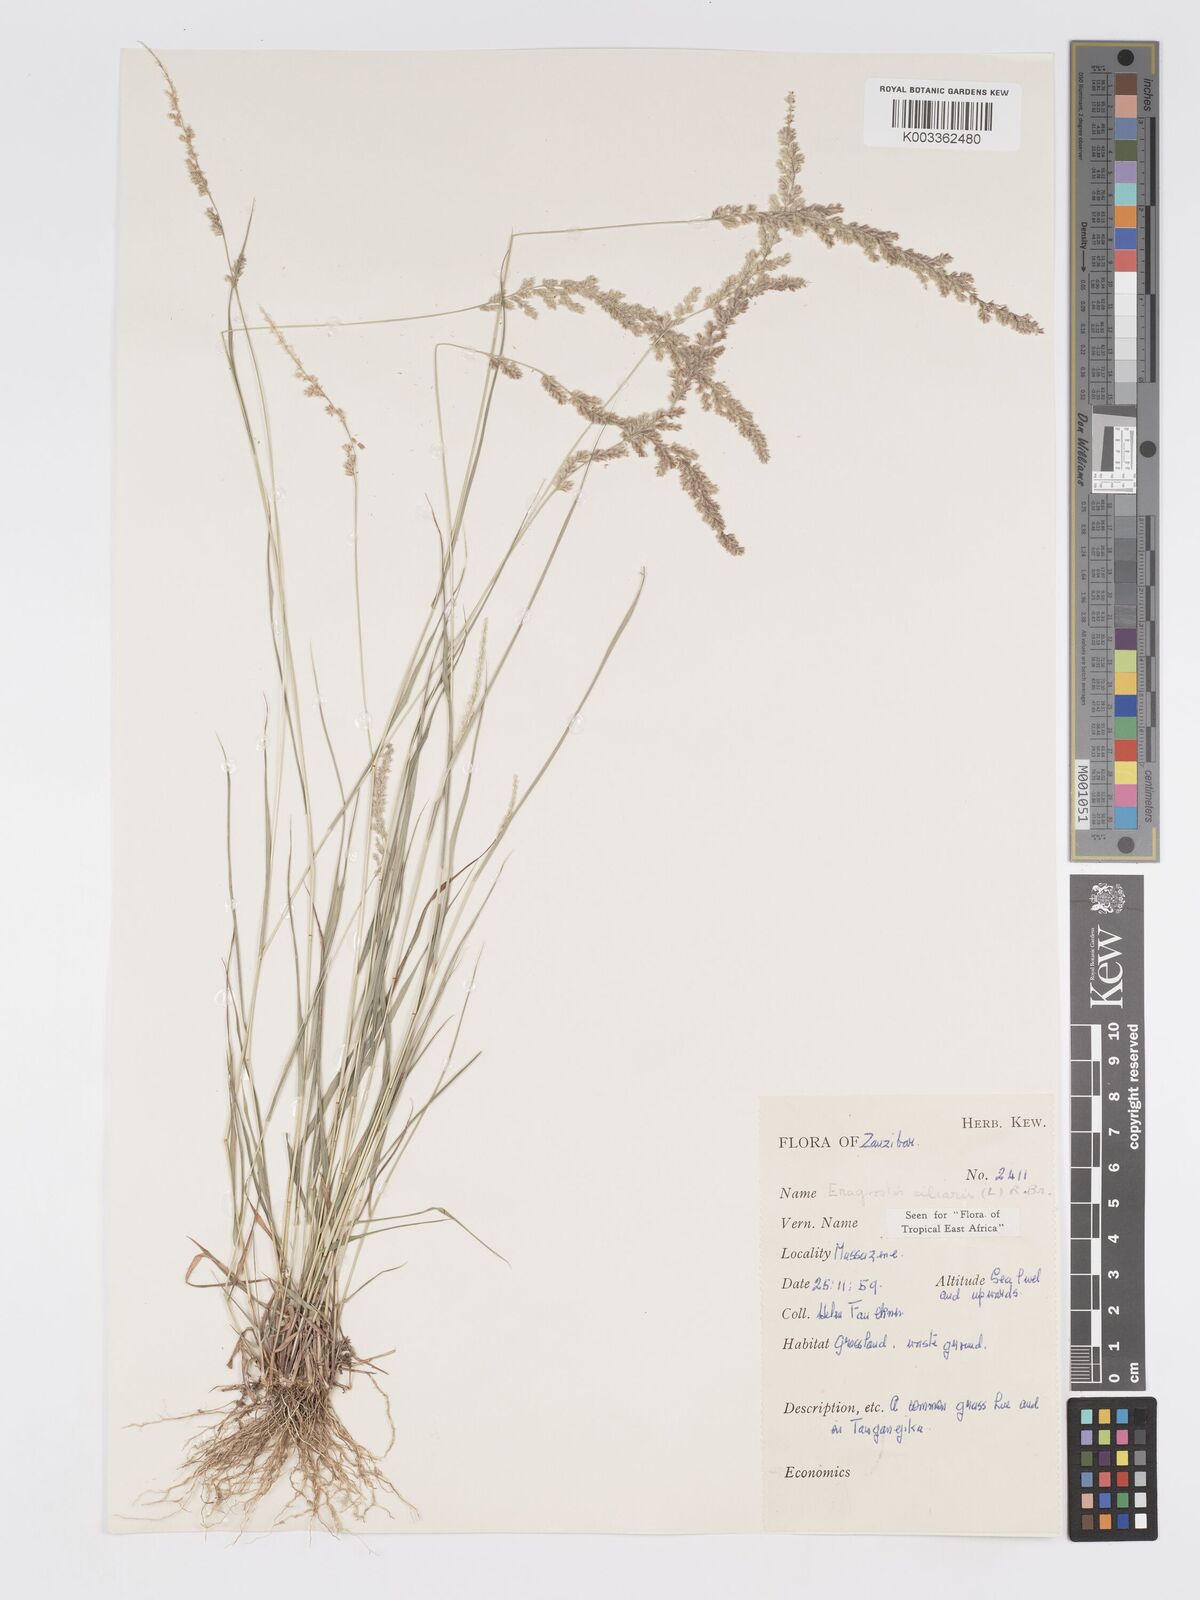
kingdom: Plantae
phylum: Tracheophyta
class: Liliopsida
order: Poales
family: Poaceae
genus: Eragrostis
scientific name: Eragrostis ciliaris
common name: Gophertail lovegrass
